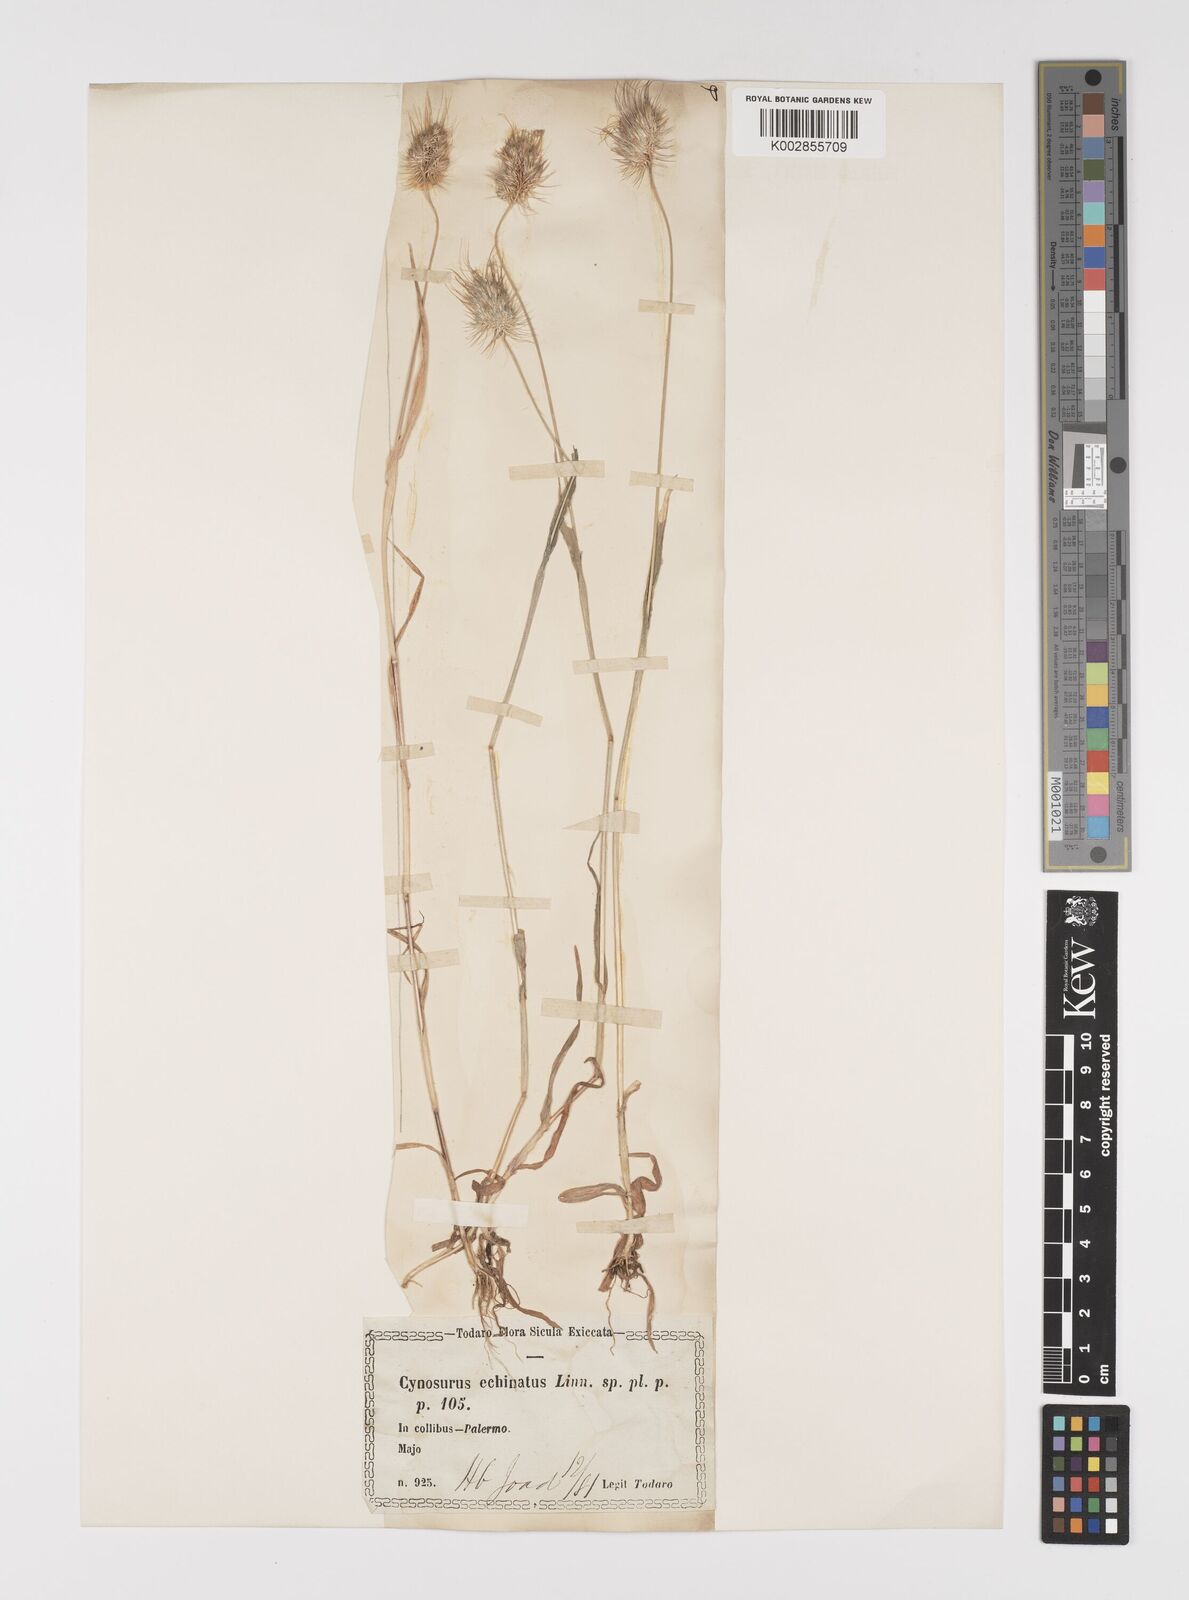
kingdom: Plantae
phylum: Tracheophyta
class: Liliopsida
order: Poales
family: Poaceae
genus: Cynosurus
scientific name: Cynosurus echinatus
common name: Rough dog's-tail
